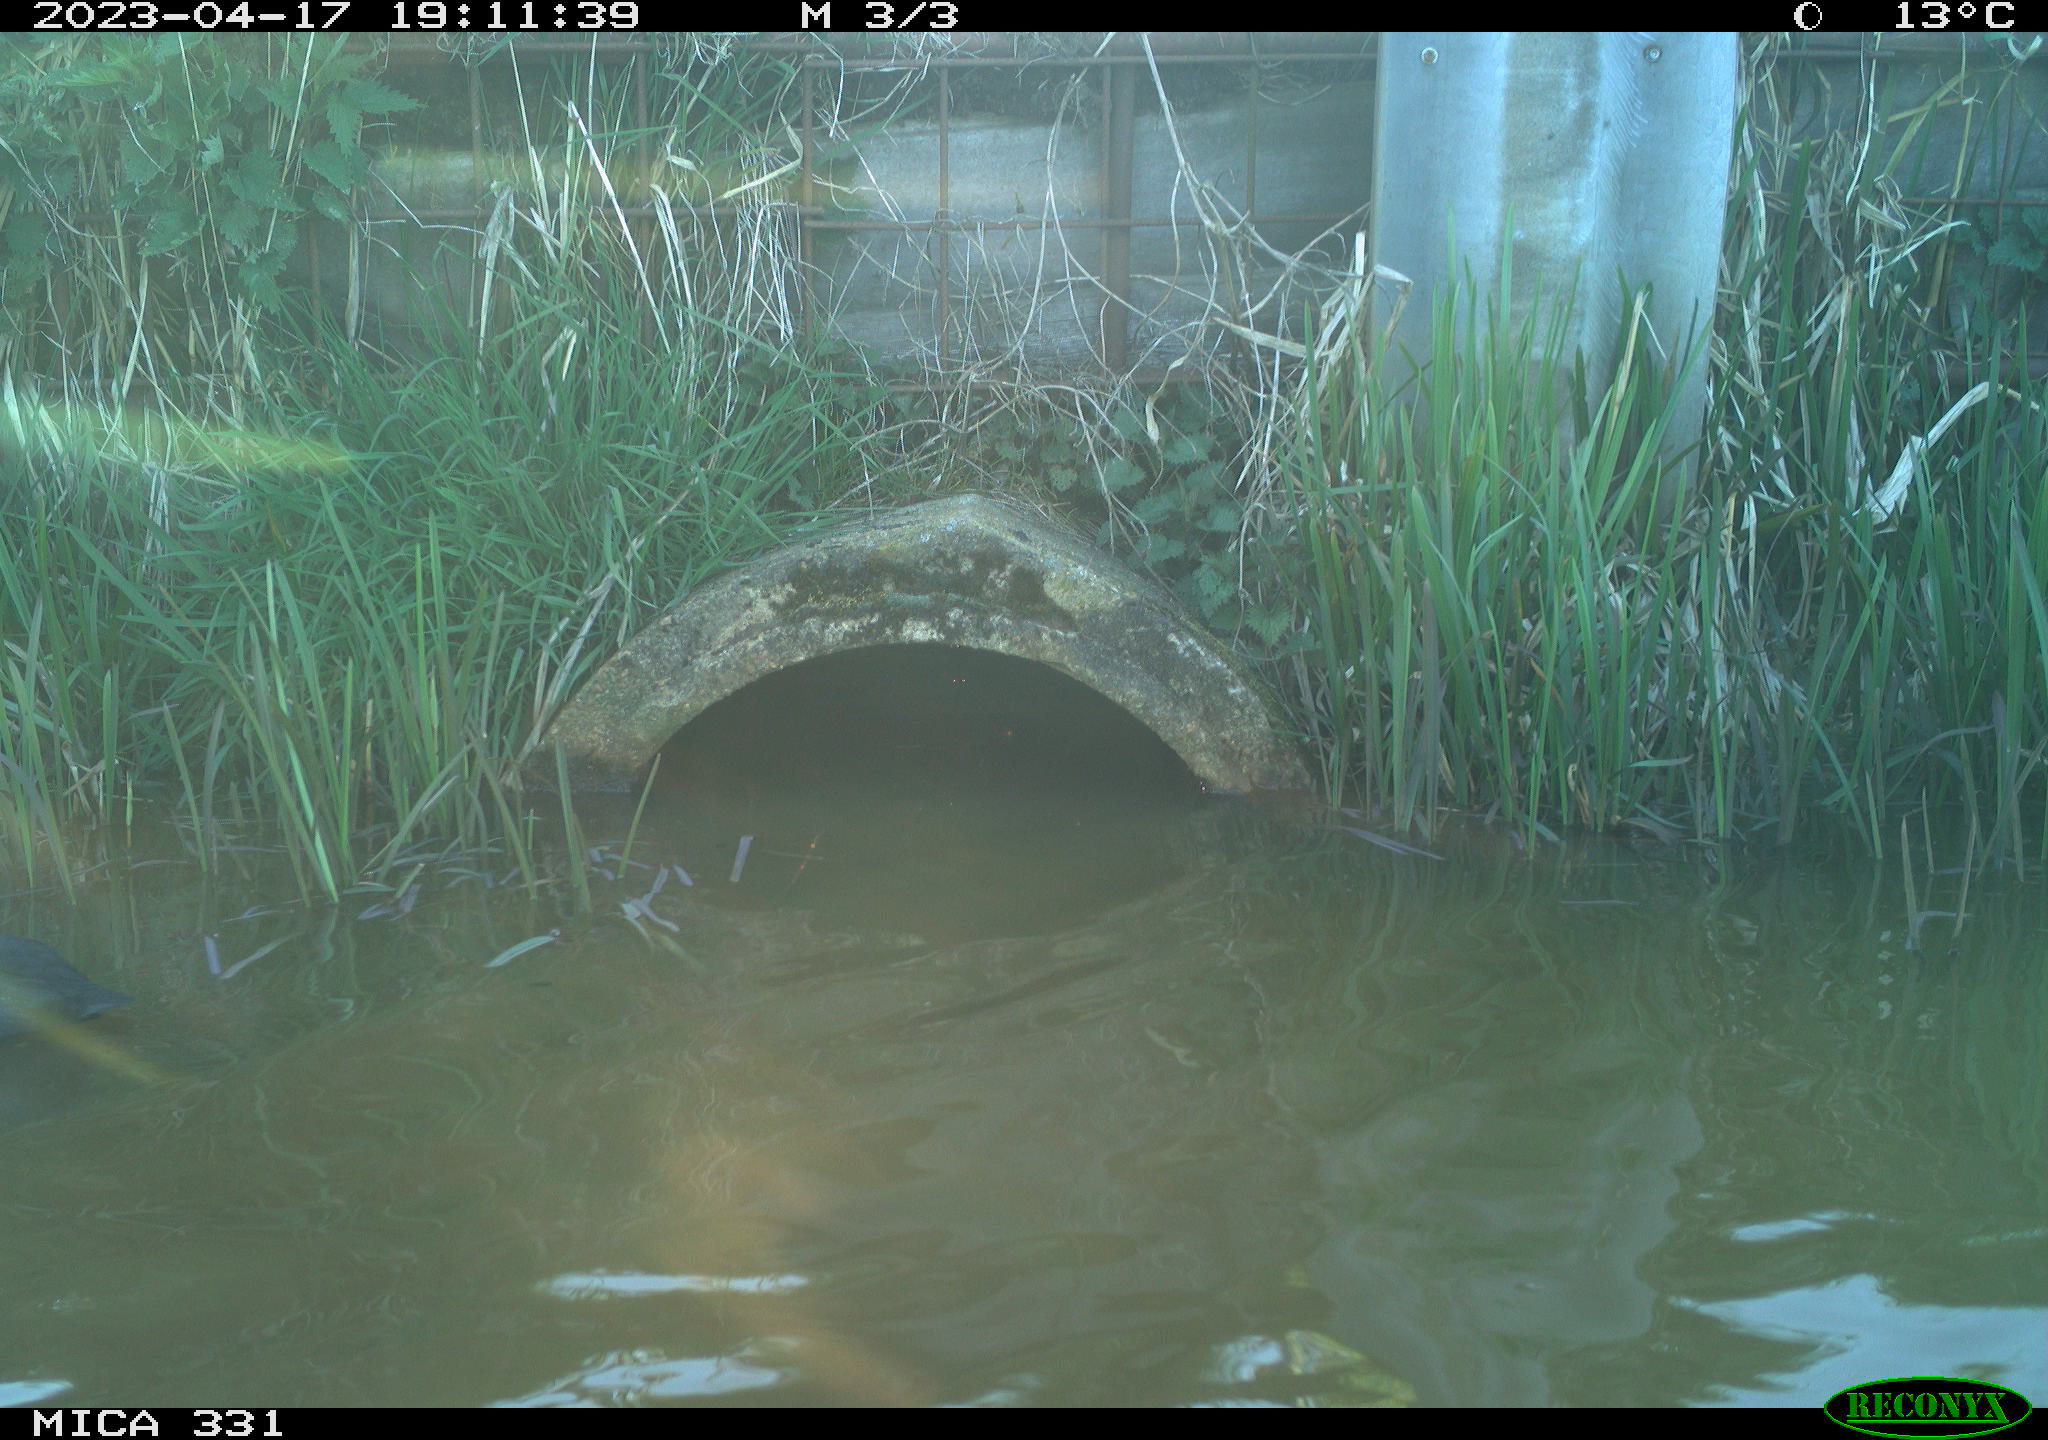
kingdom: Animalia
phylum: Chordata
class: Aves
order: Gruiformes
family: Rallidae
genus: Fulica
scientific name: Fulica atra
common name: Eurasian coot
